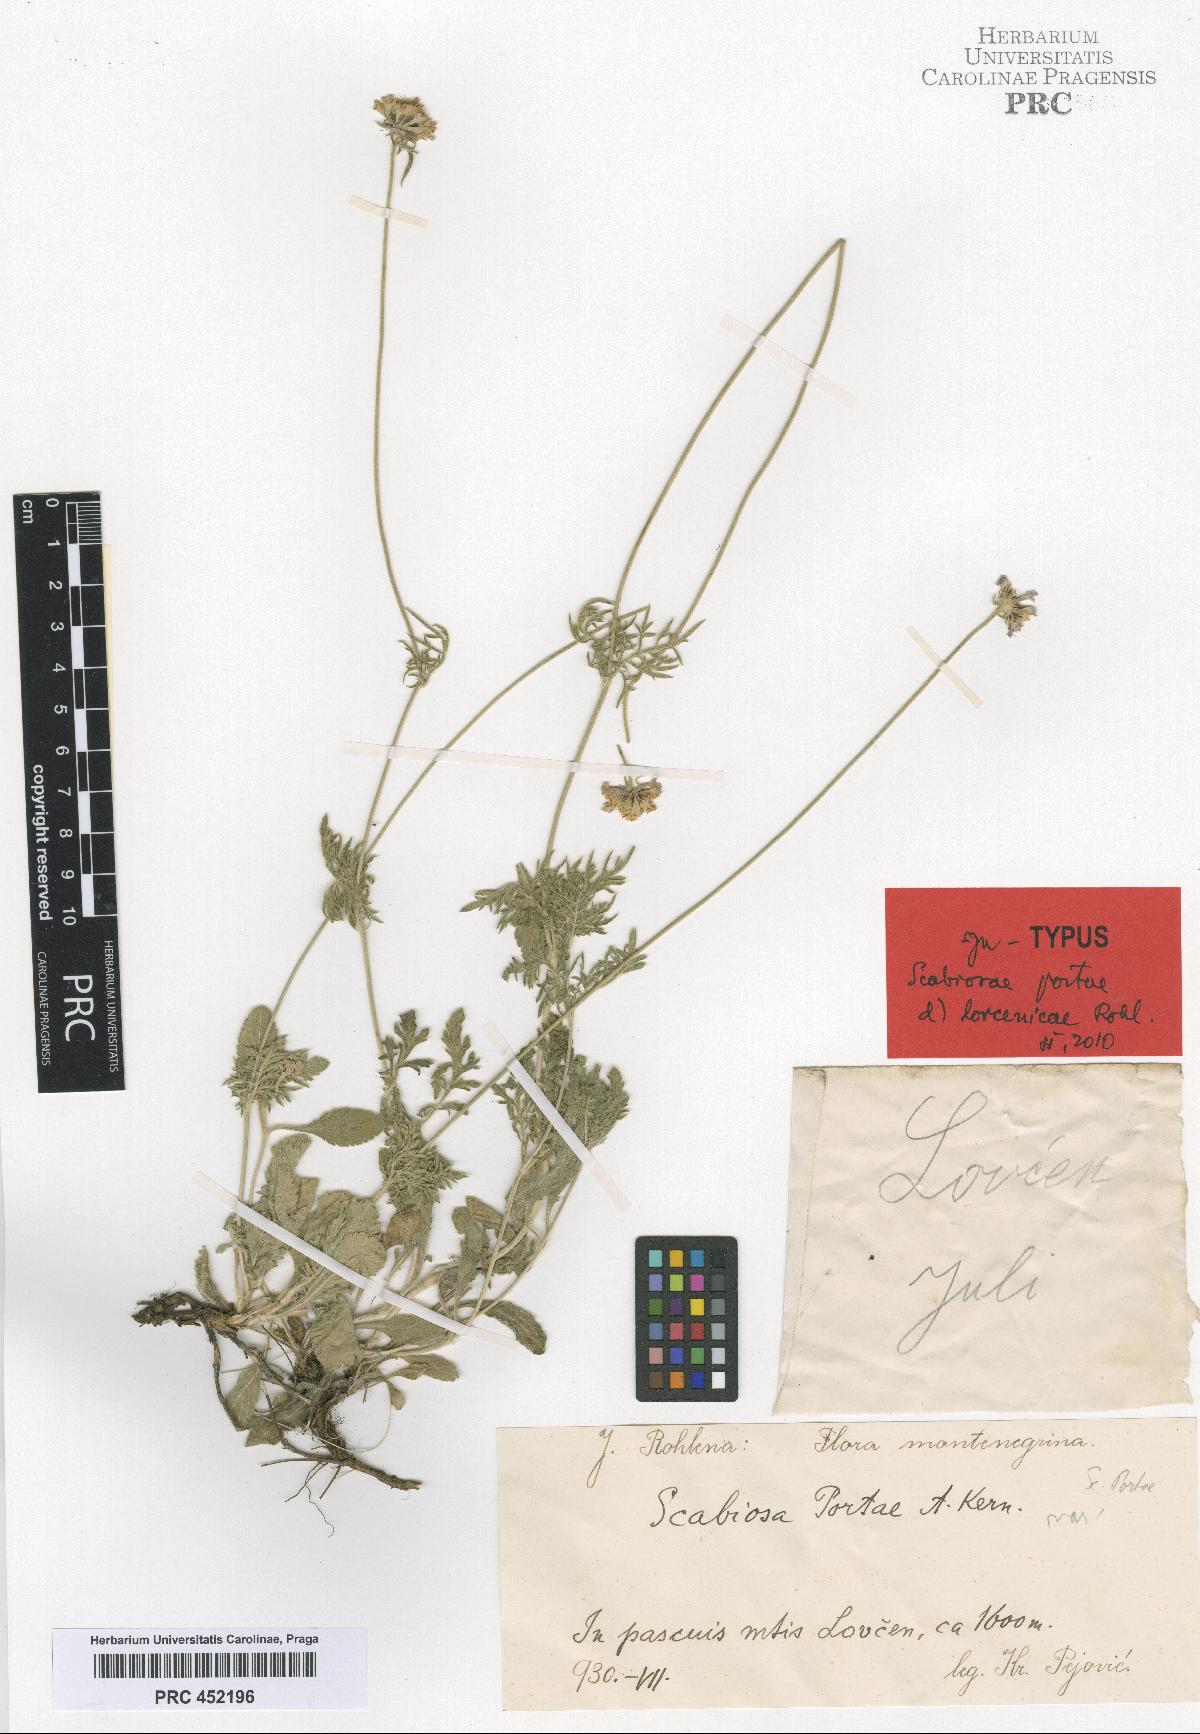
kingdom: Plantae
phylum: Tracheophyta
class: Magnoliopsida
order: Dipsacales
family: Caprifoliaceae
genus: Scabiosa
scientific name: Scabiosa taygetea
